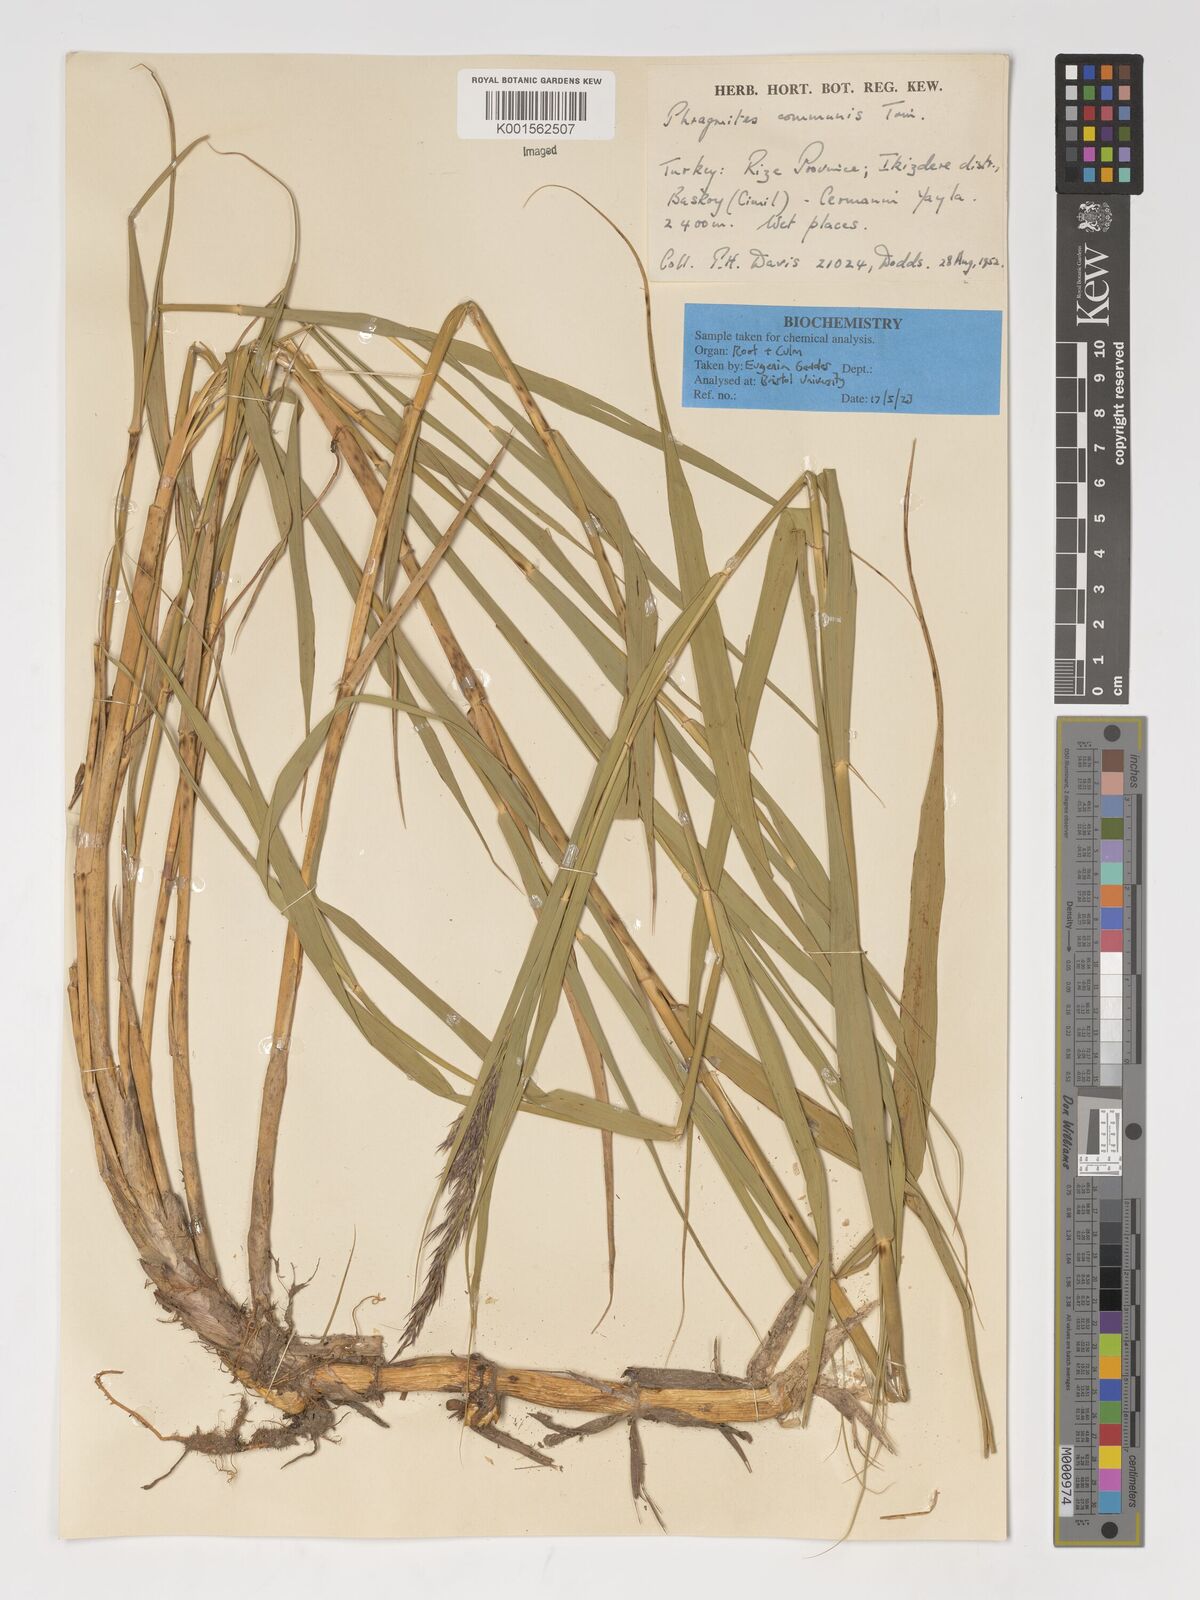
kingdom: Plantae
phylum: Tracheophyta
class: Liliopsida
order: Poales
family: Poaceae
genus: Phragmites
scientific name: Phragmites australis
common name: Common reed
